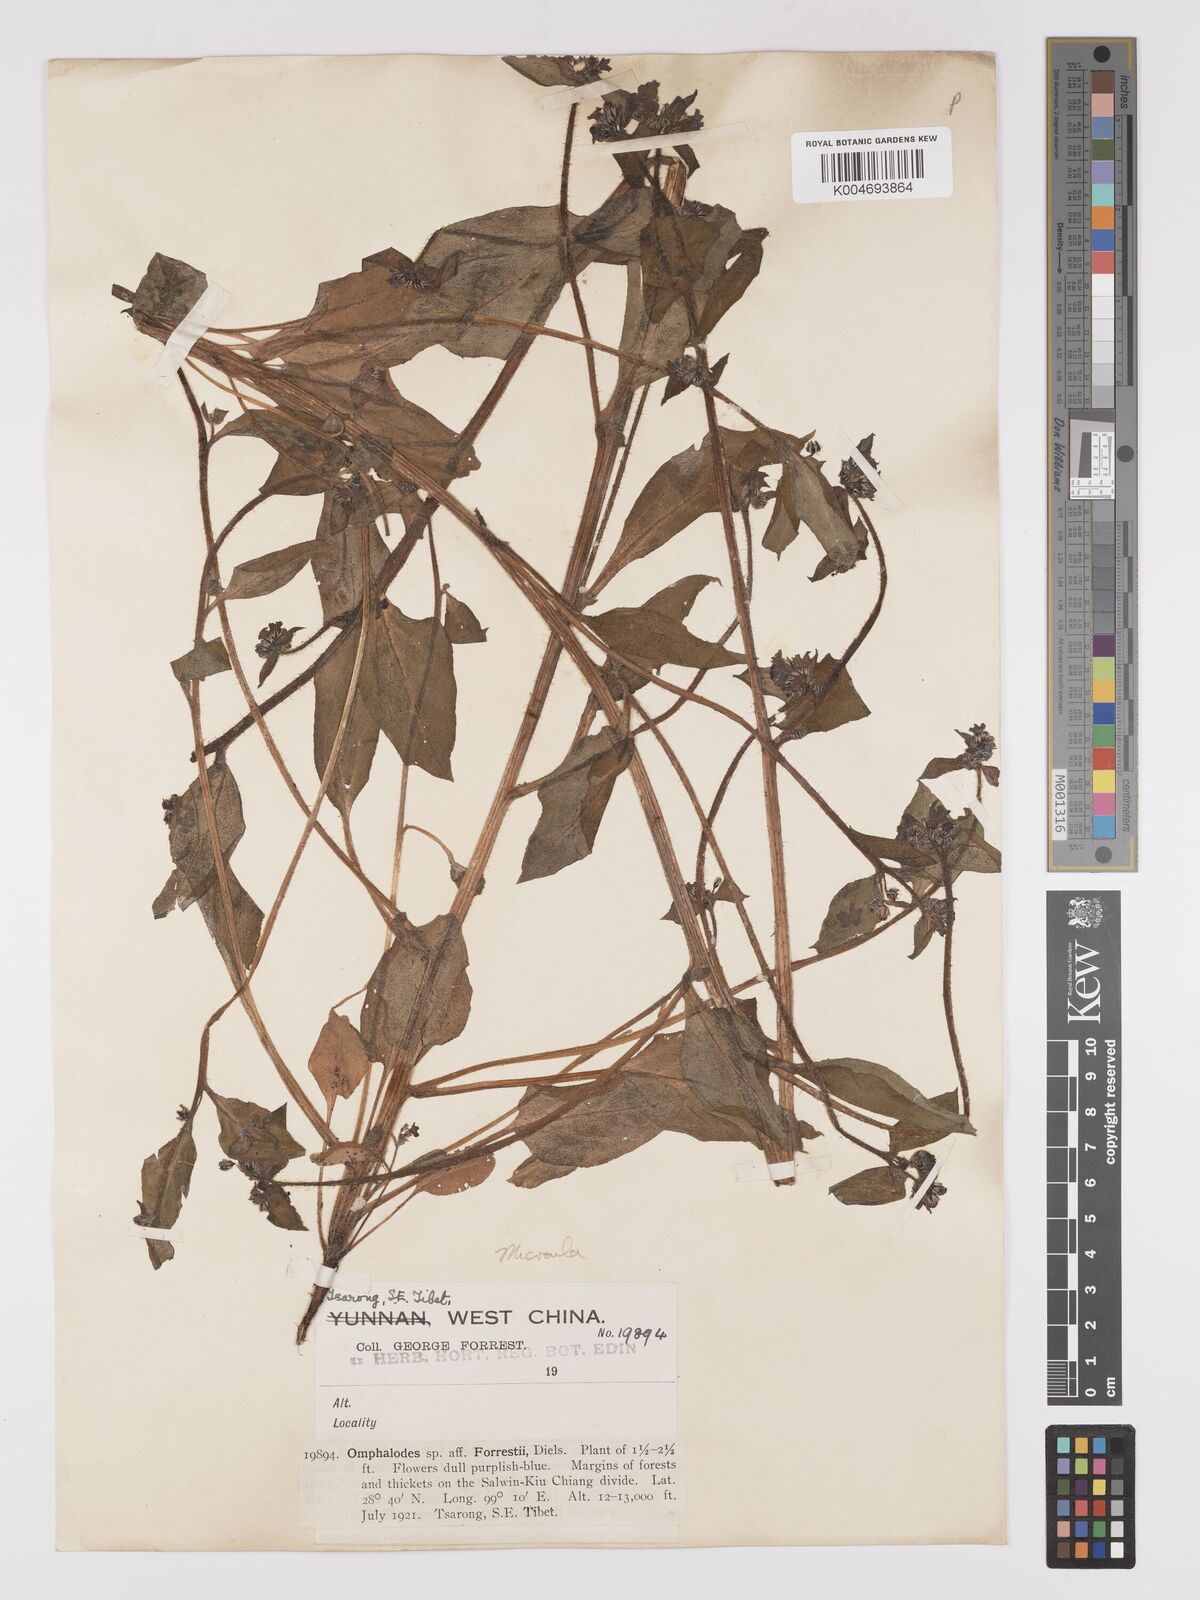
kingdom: Plantae
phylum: Tracheophyta
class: Magnoliopsida
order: Boraginales
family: Boraginaceae
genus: Microula
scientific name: Microula forrestii
